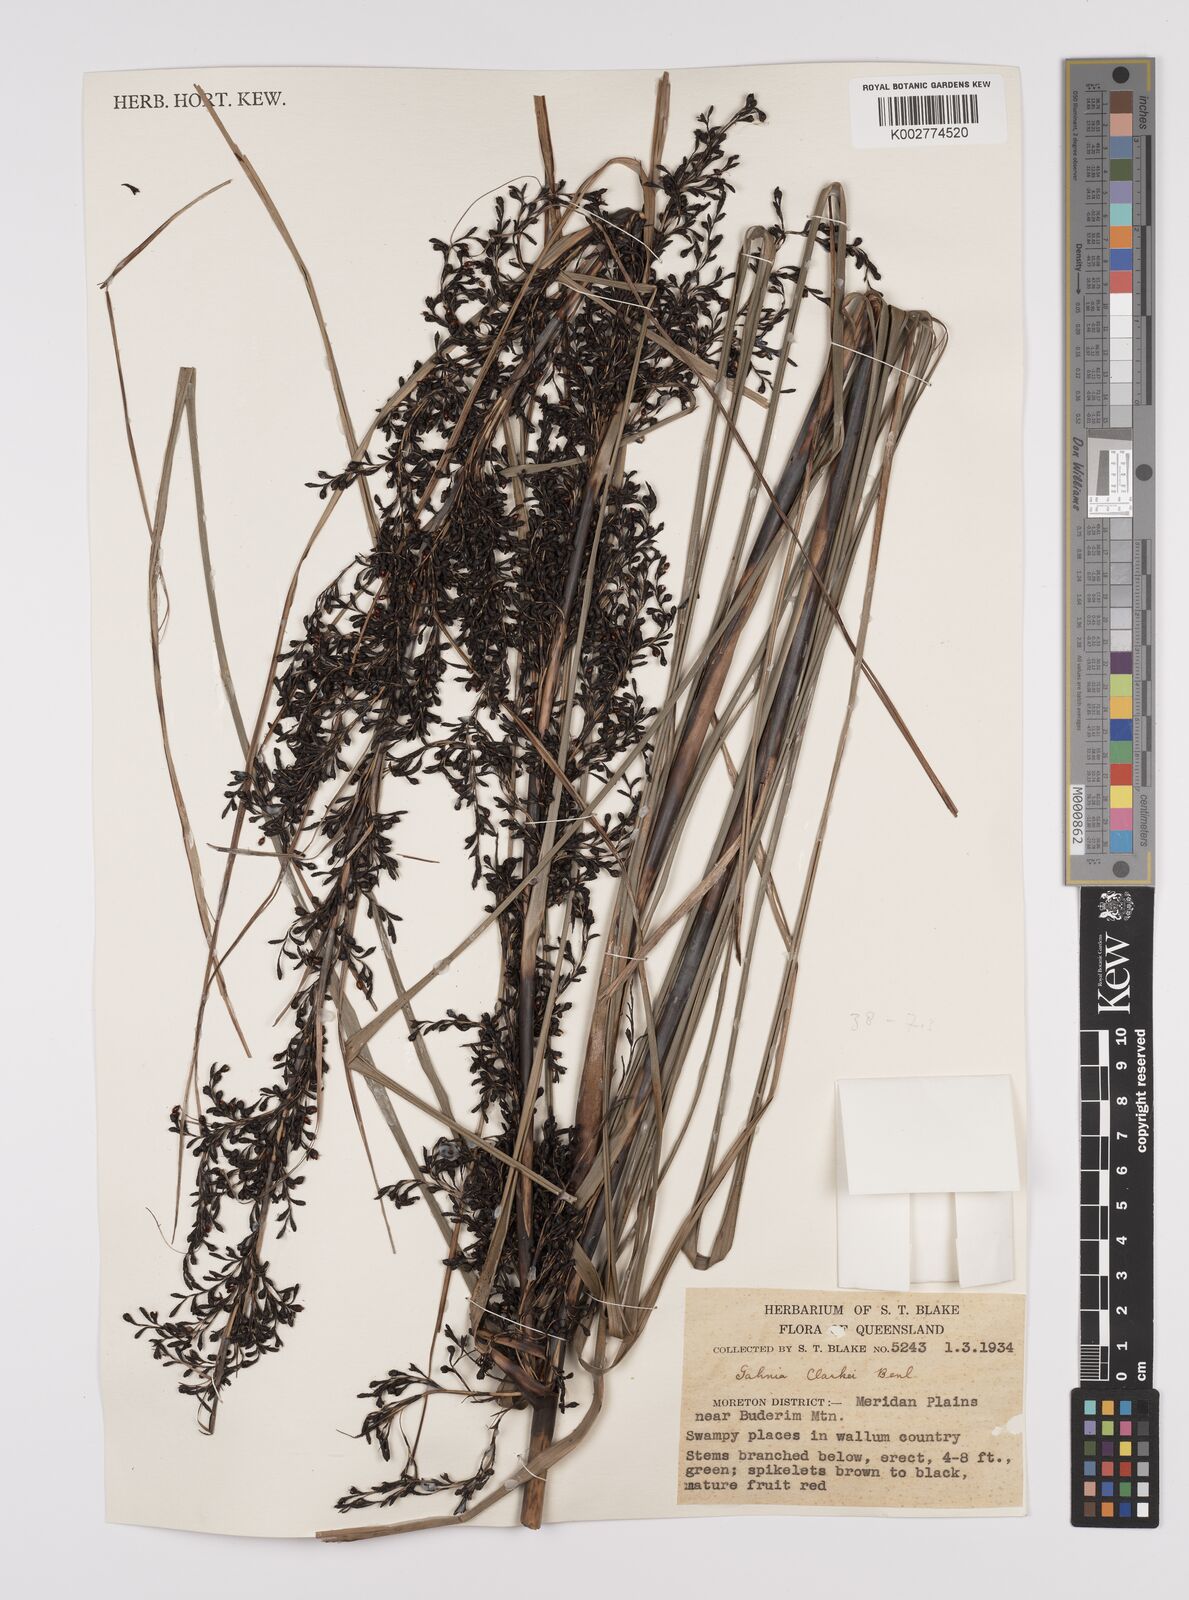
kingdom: Plantae
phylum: Tracheophyta
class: Liliopsida
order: Poales
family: Cyperaceae
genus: Gahnia
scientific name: Gahnia clarkei
